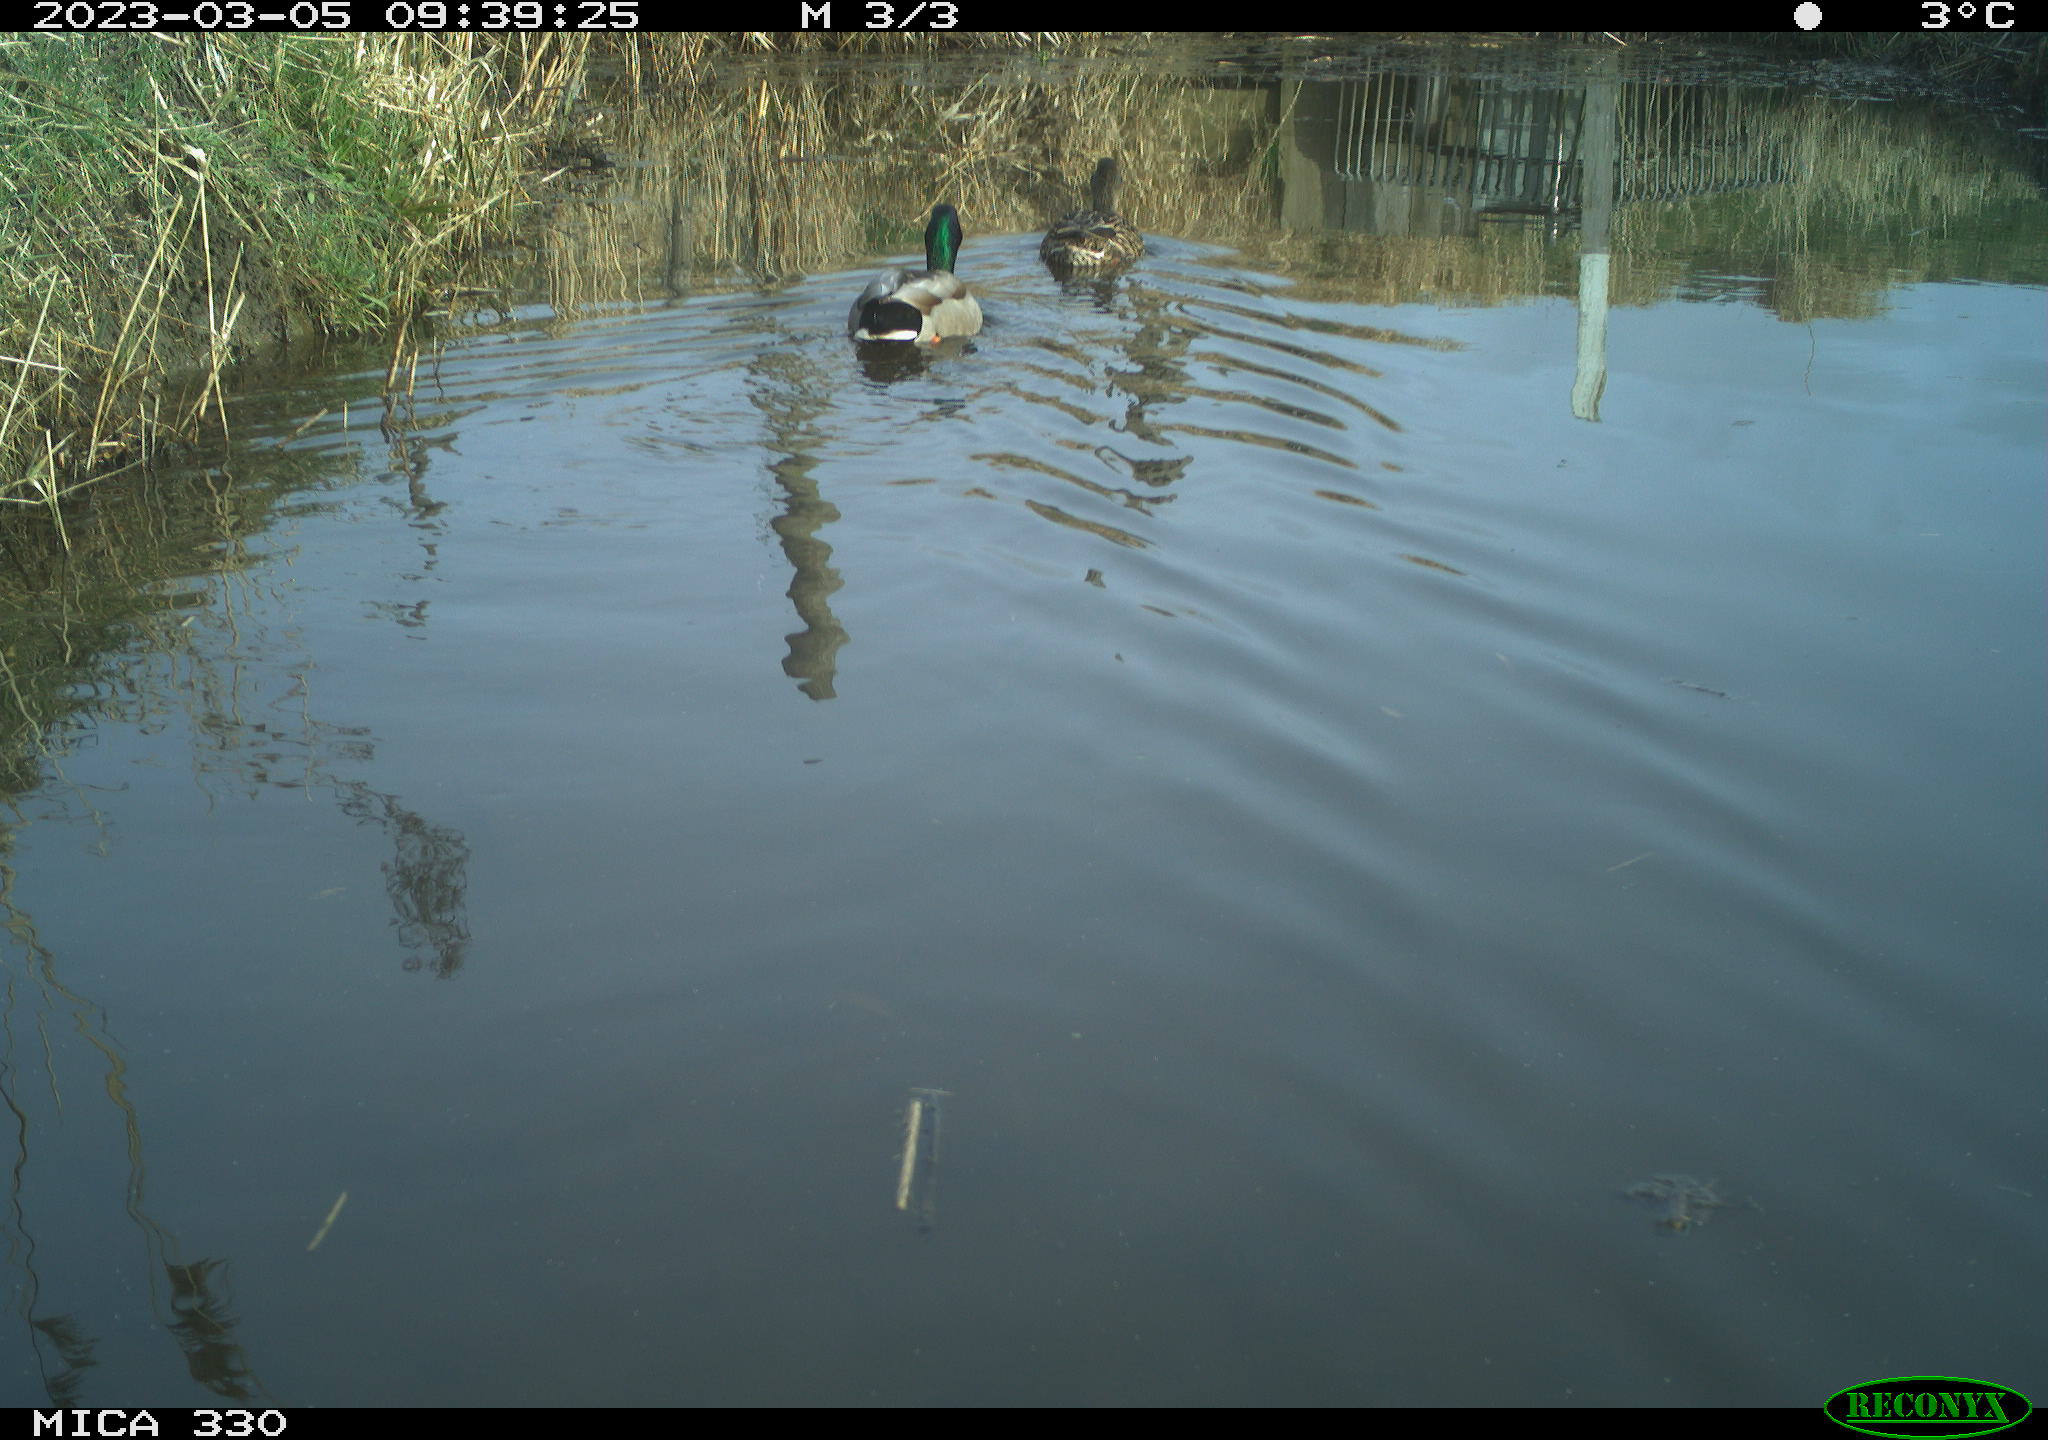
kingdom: Animalia
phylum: Chordata
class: Aves
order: Anseriformes
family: Anatidae
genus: Anas
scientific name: Anas
